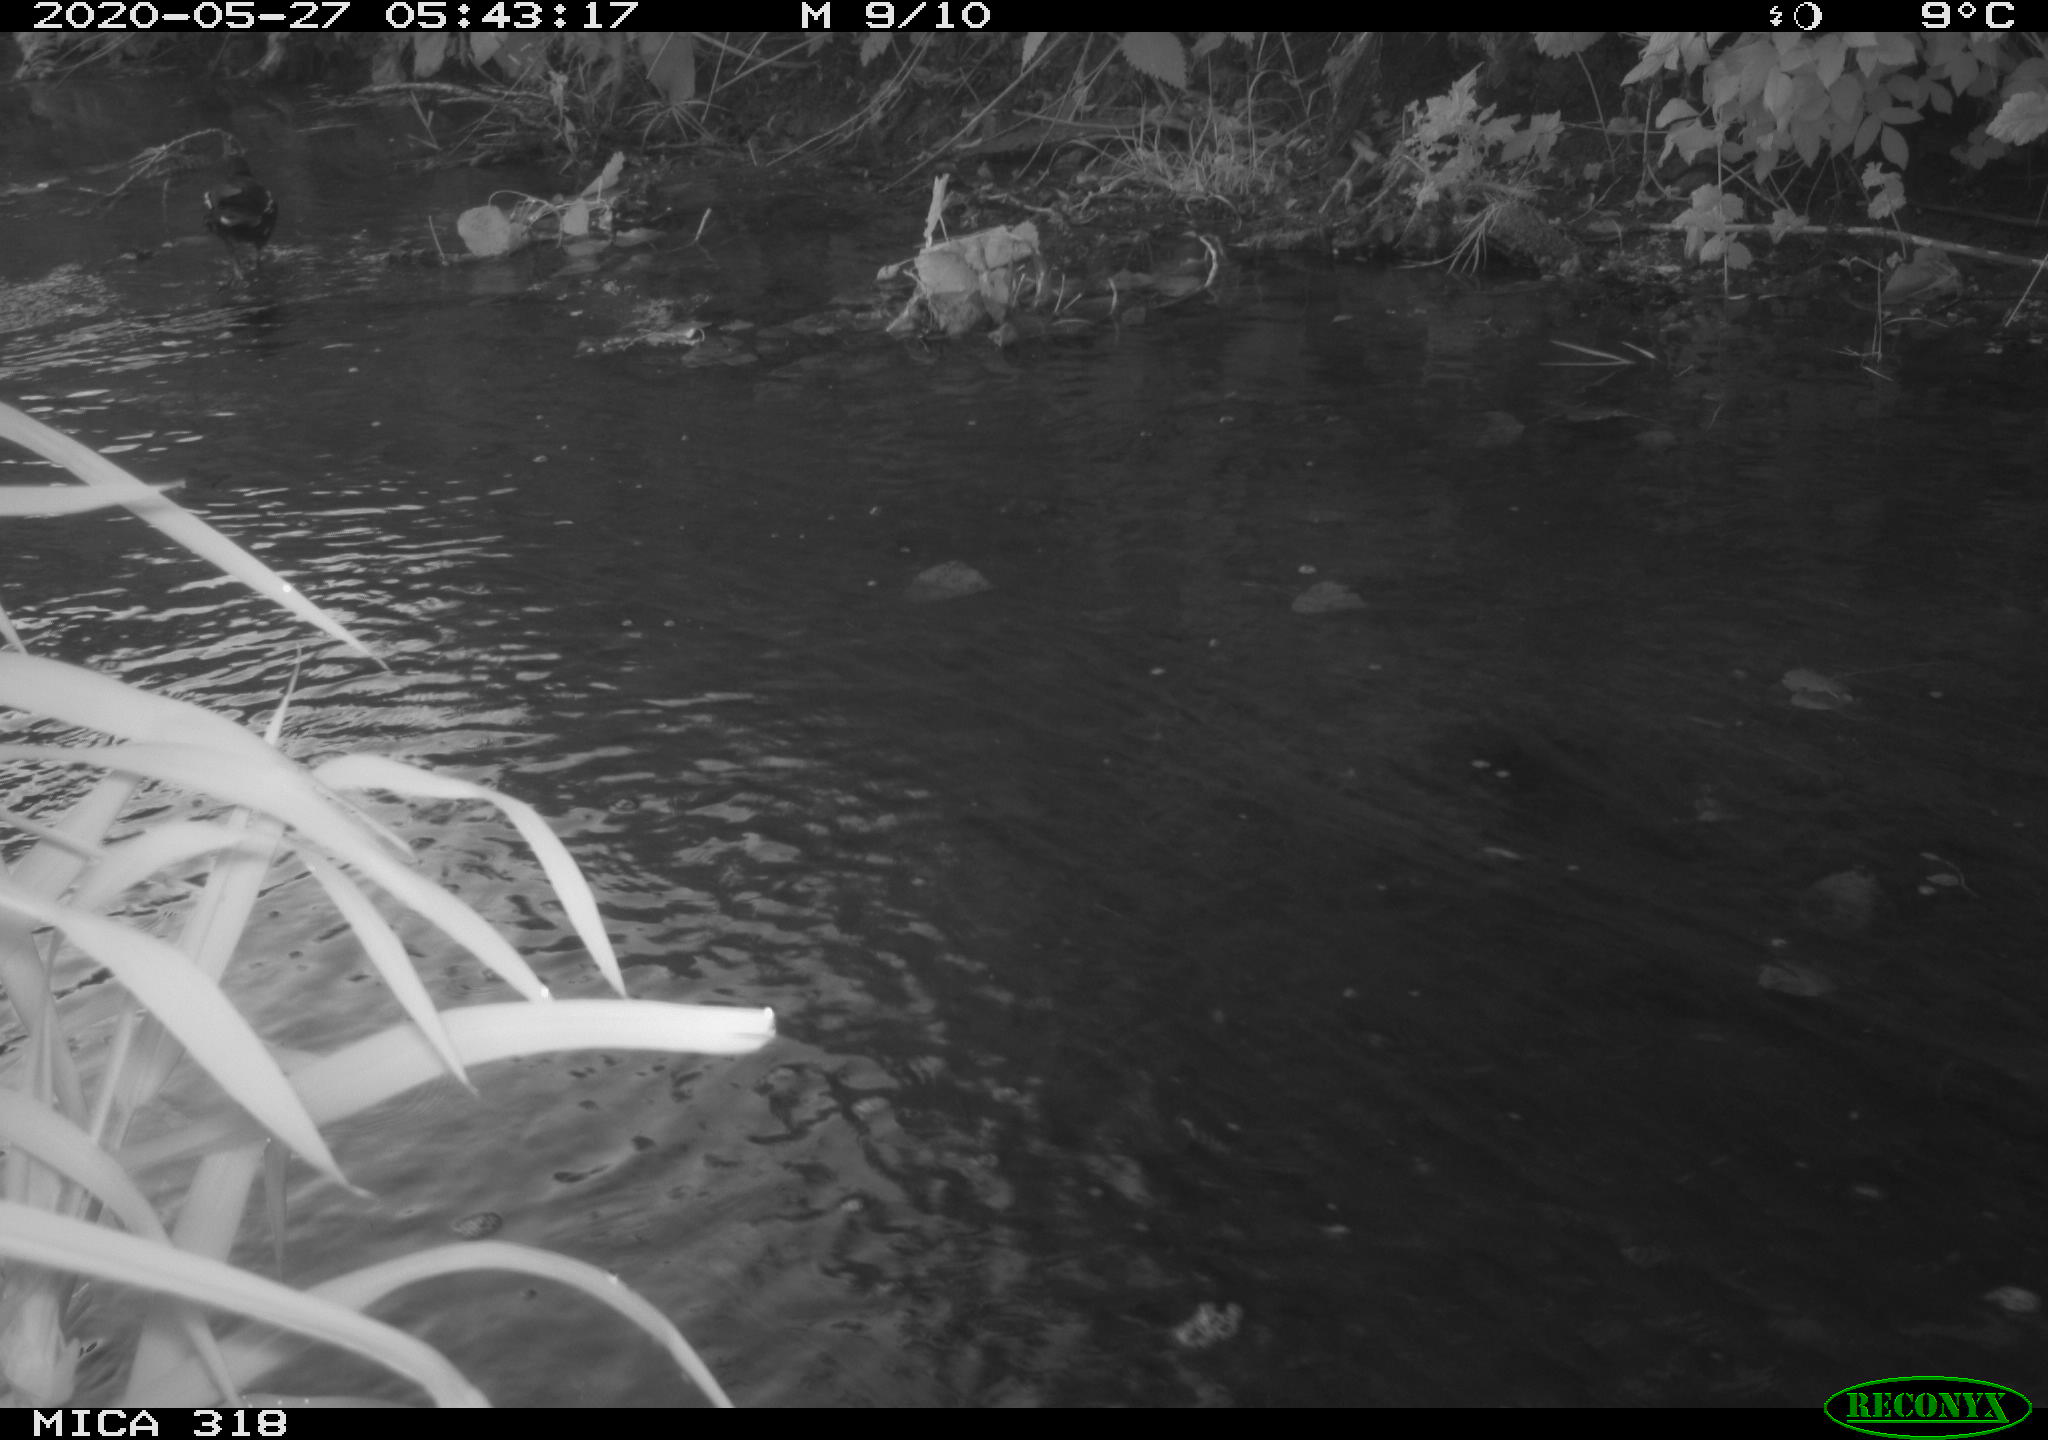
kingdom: Animalia
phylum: Chordata
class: Aves
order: Gruiformes
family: Rallidae
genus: Gallinula
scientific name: Gallinula chloropus
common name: Common moorhen
